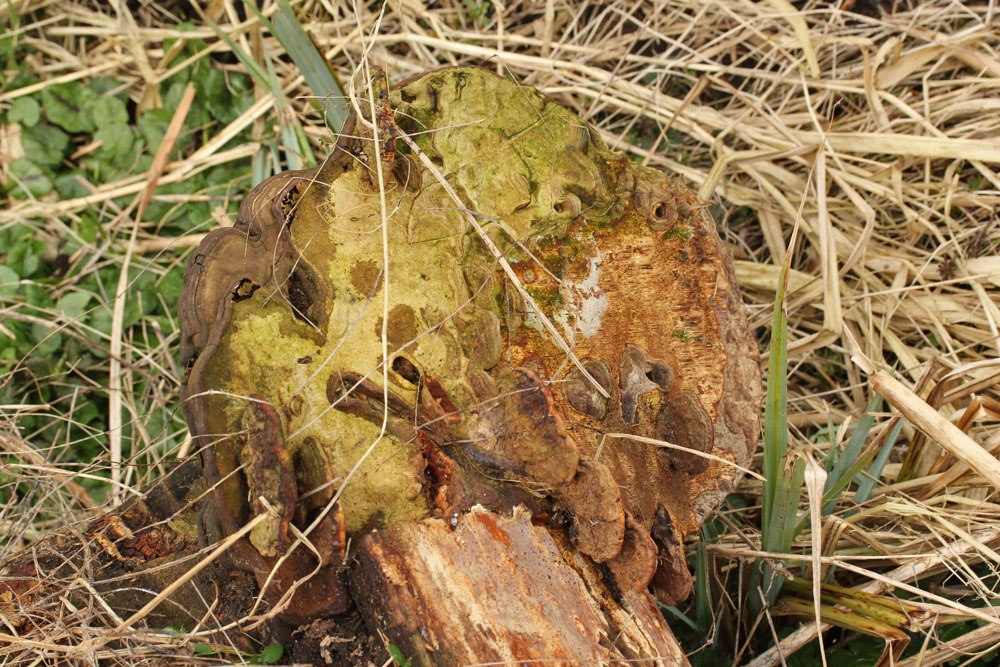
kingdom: Fungi
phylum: Basidiomycota
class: Agaricomycetes
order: Polyporales
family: Polyporaceae
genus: Ganoderma
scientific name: Ganoderma applanatum
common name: flad lakporesvamp
